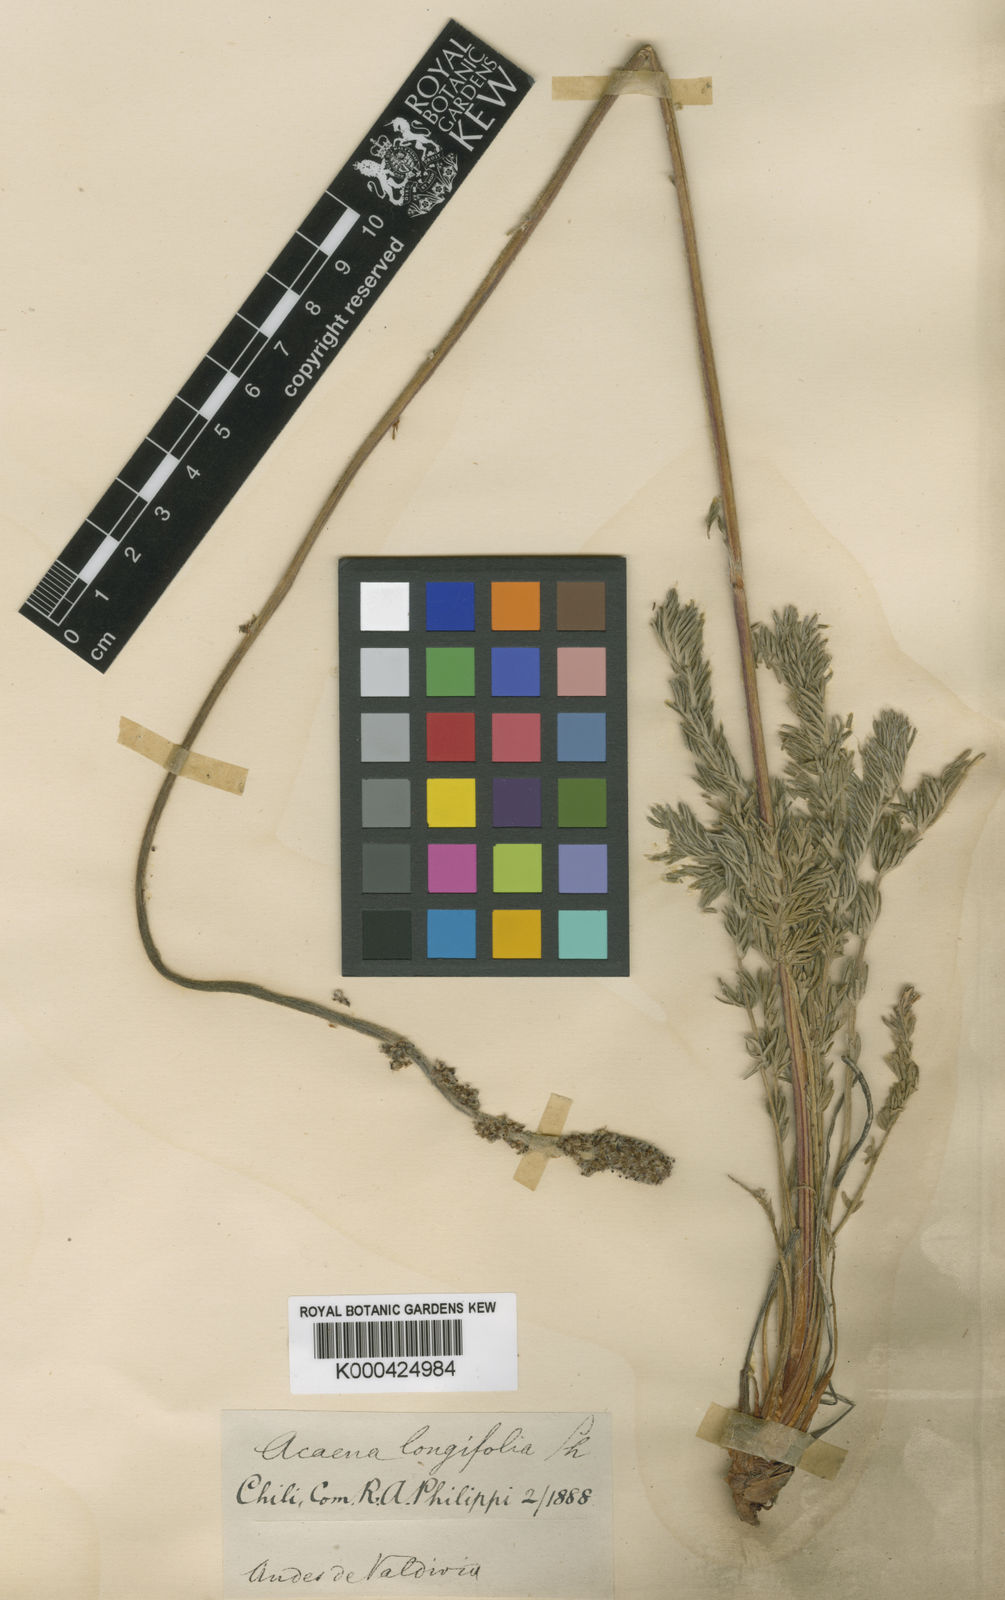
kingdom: Plantae
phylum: Tracheophyta
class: Magnoliopsida
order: Rosales
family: Rosaceae
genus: Acaena
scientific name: Acaena pinnatifida
